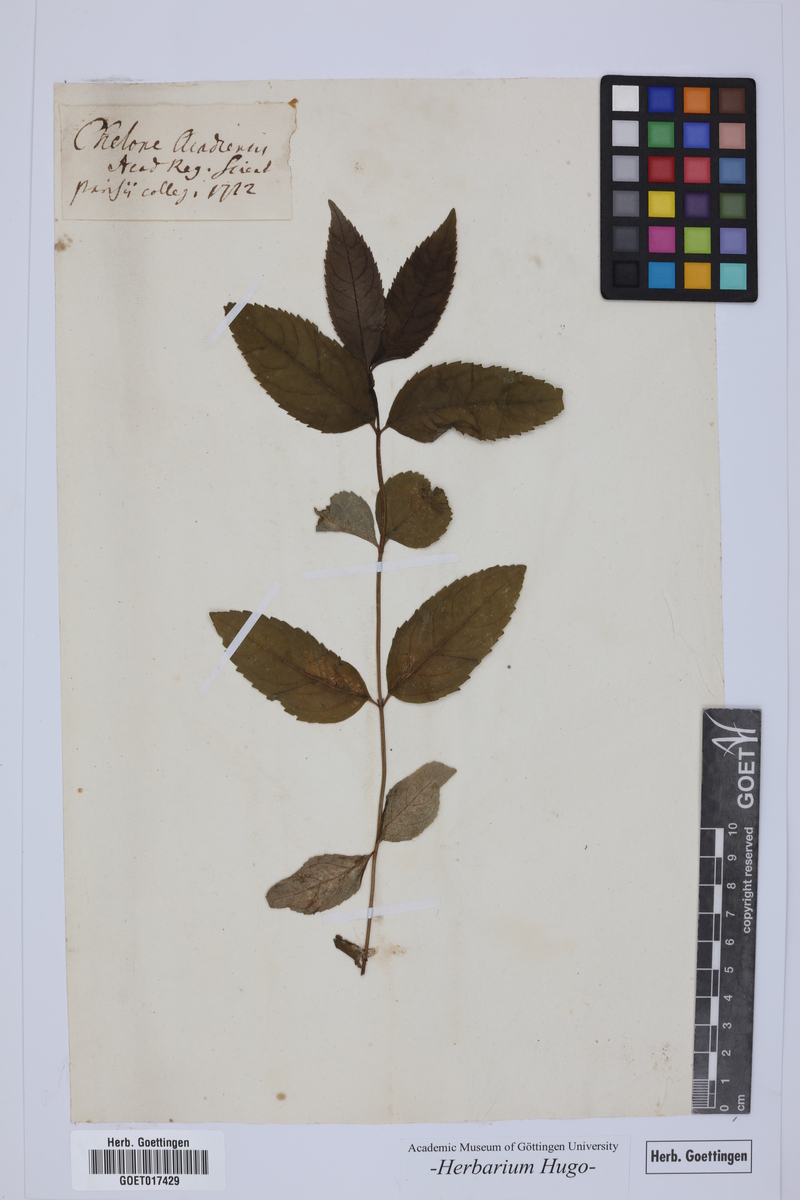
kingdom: Plantae
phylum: Tracheophyta
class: Magnoliopsida
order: Lamiales
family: Plantaginaceae
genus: Chelone
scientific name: Chelone glabra
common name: Snakehead
